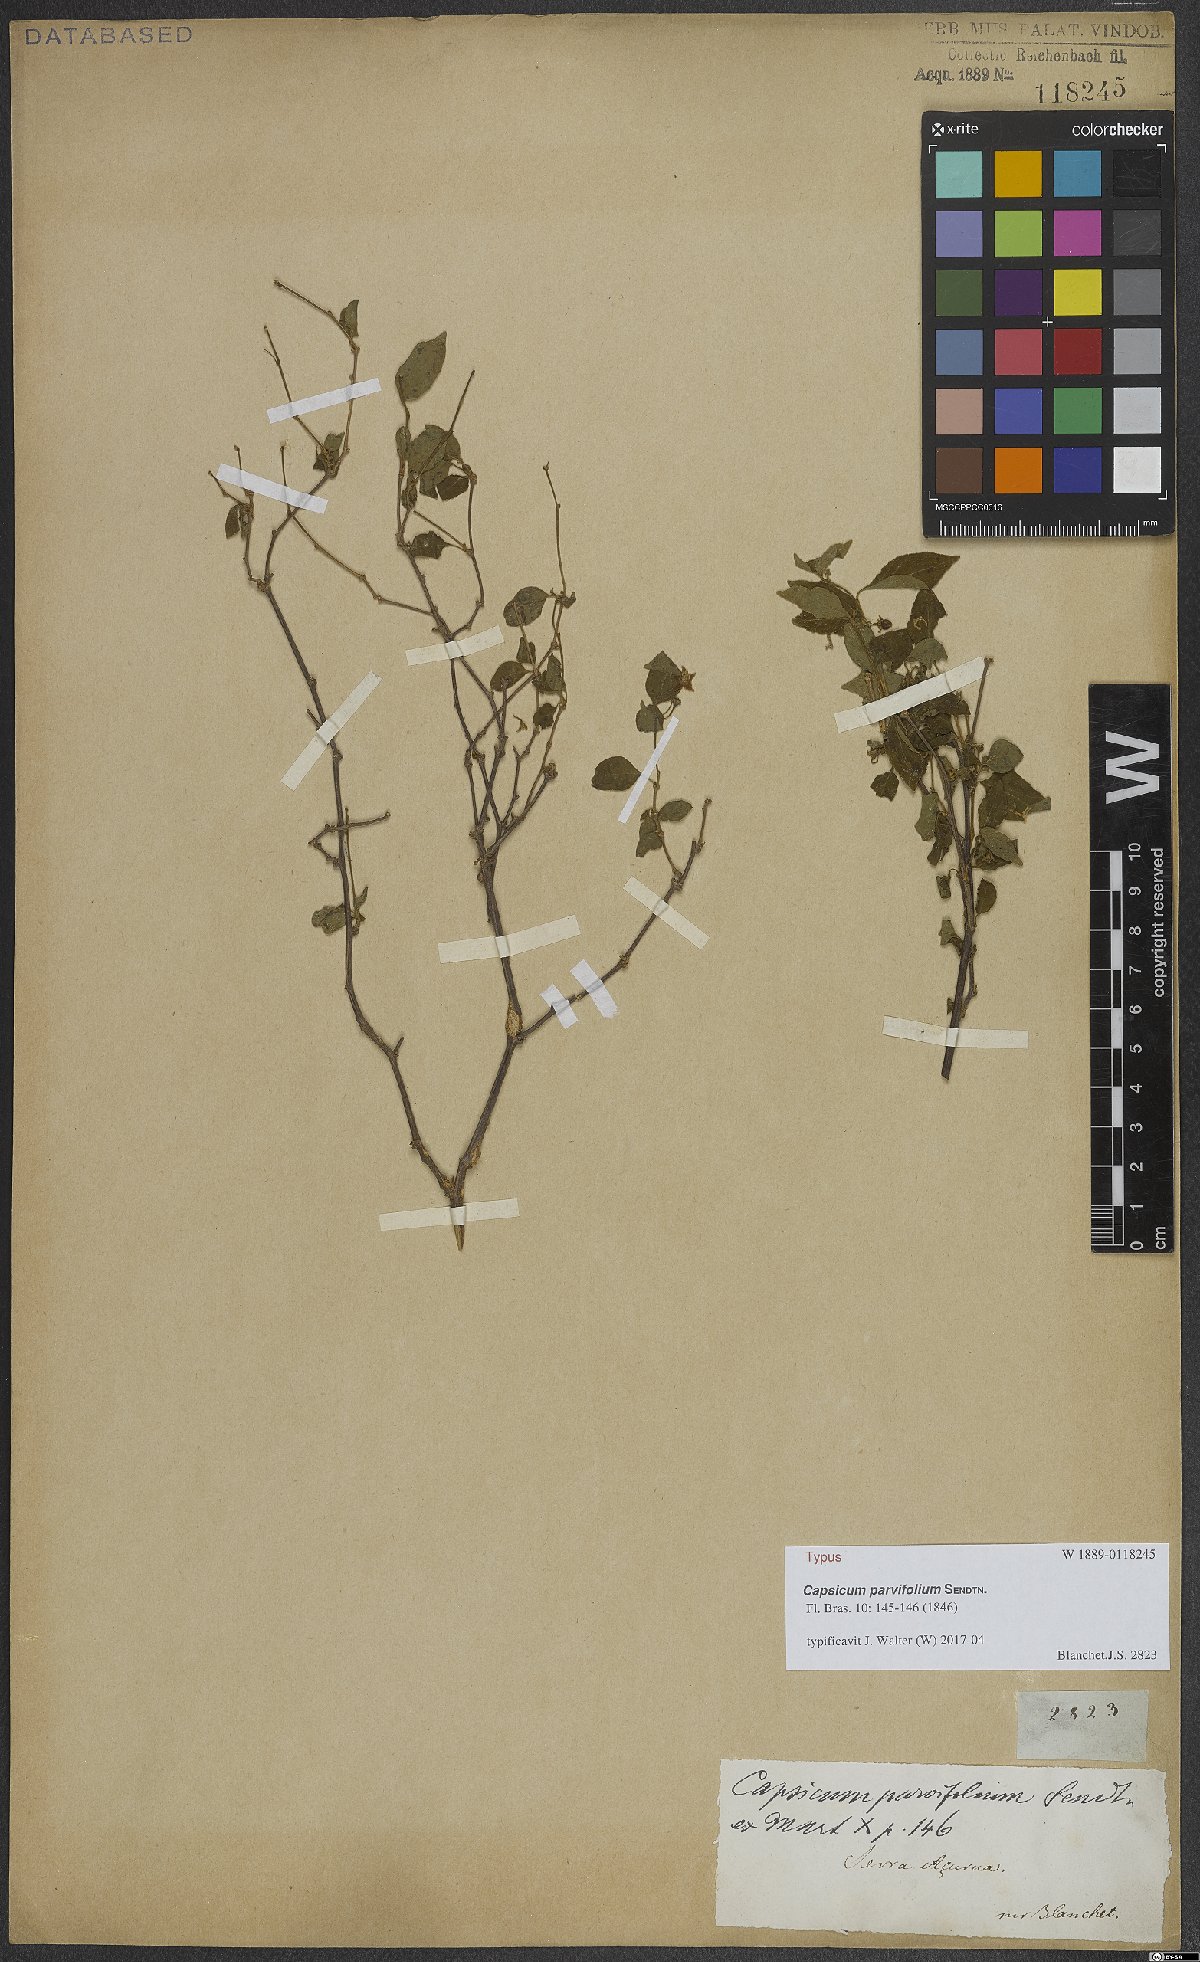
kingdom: Plantae
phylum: Tracheophyta
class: Magnoliopsida
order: Solanales
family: Solanaceae
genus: Capsicum
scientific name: Capsicum parvifolium
